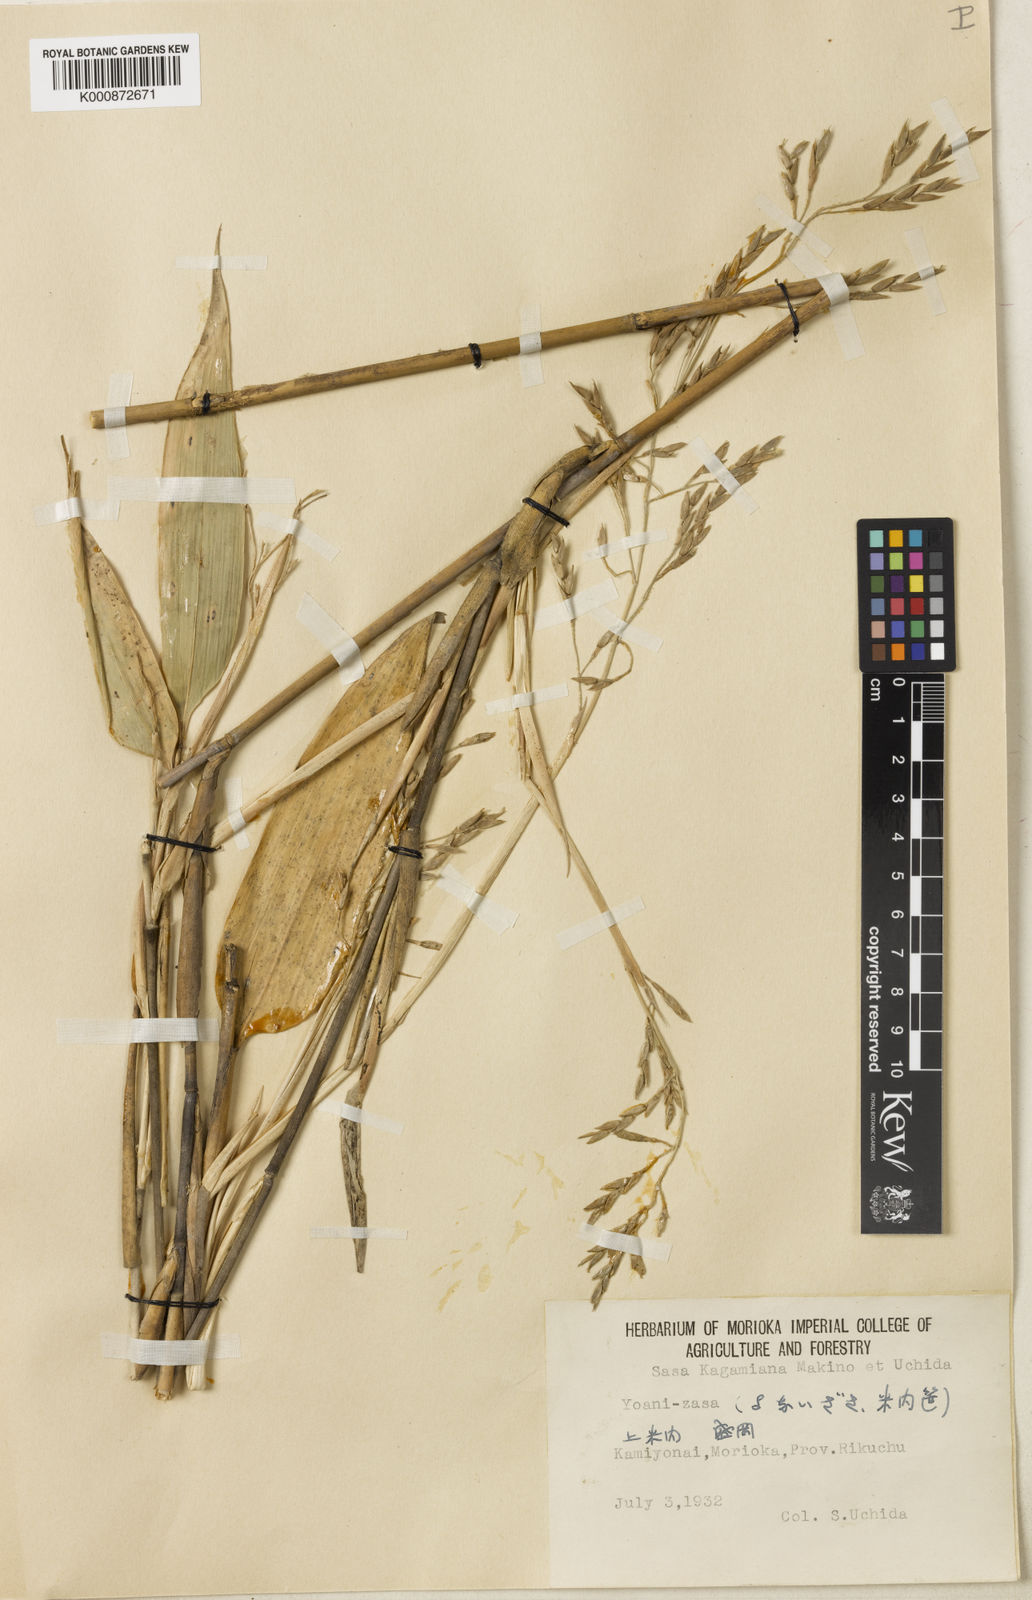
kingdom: Plantae
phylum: Tracheophyta
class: Liliopsida
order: Poales
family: Poaceae
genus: Sasa
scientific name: Sasa kagamiana
